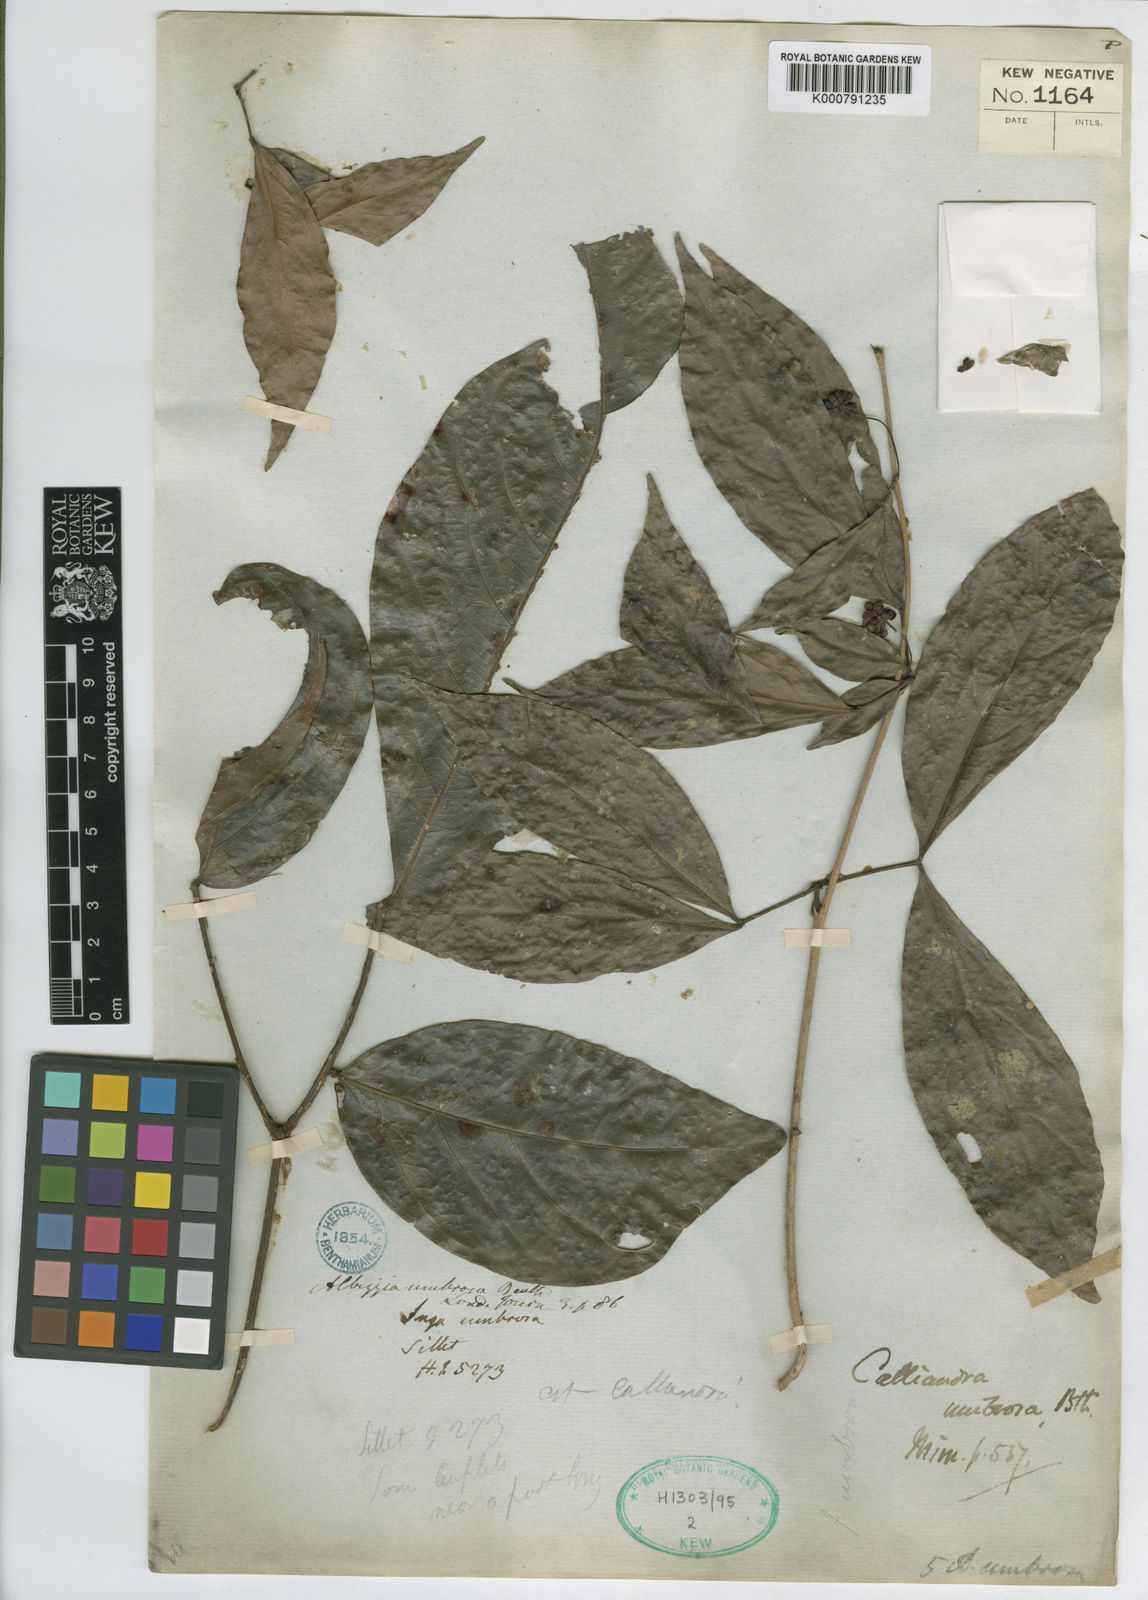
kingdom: Plantae
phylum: Tracheophyta
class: Magnoliopsida
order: Fabales
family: Fabaceae
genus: Albizia
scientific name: Albizia umbrosa
